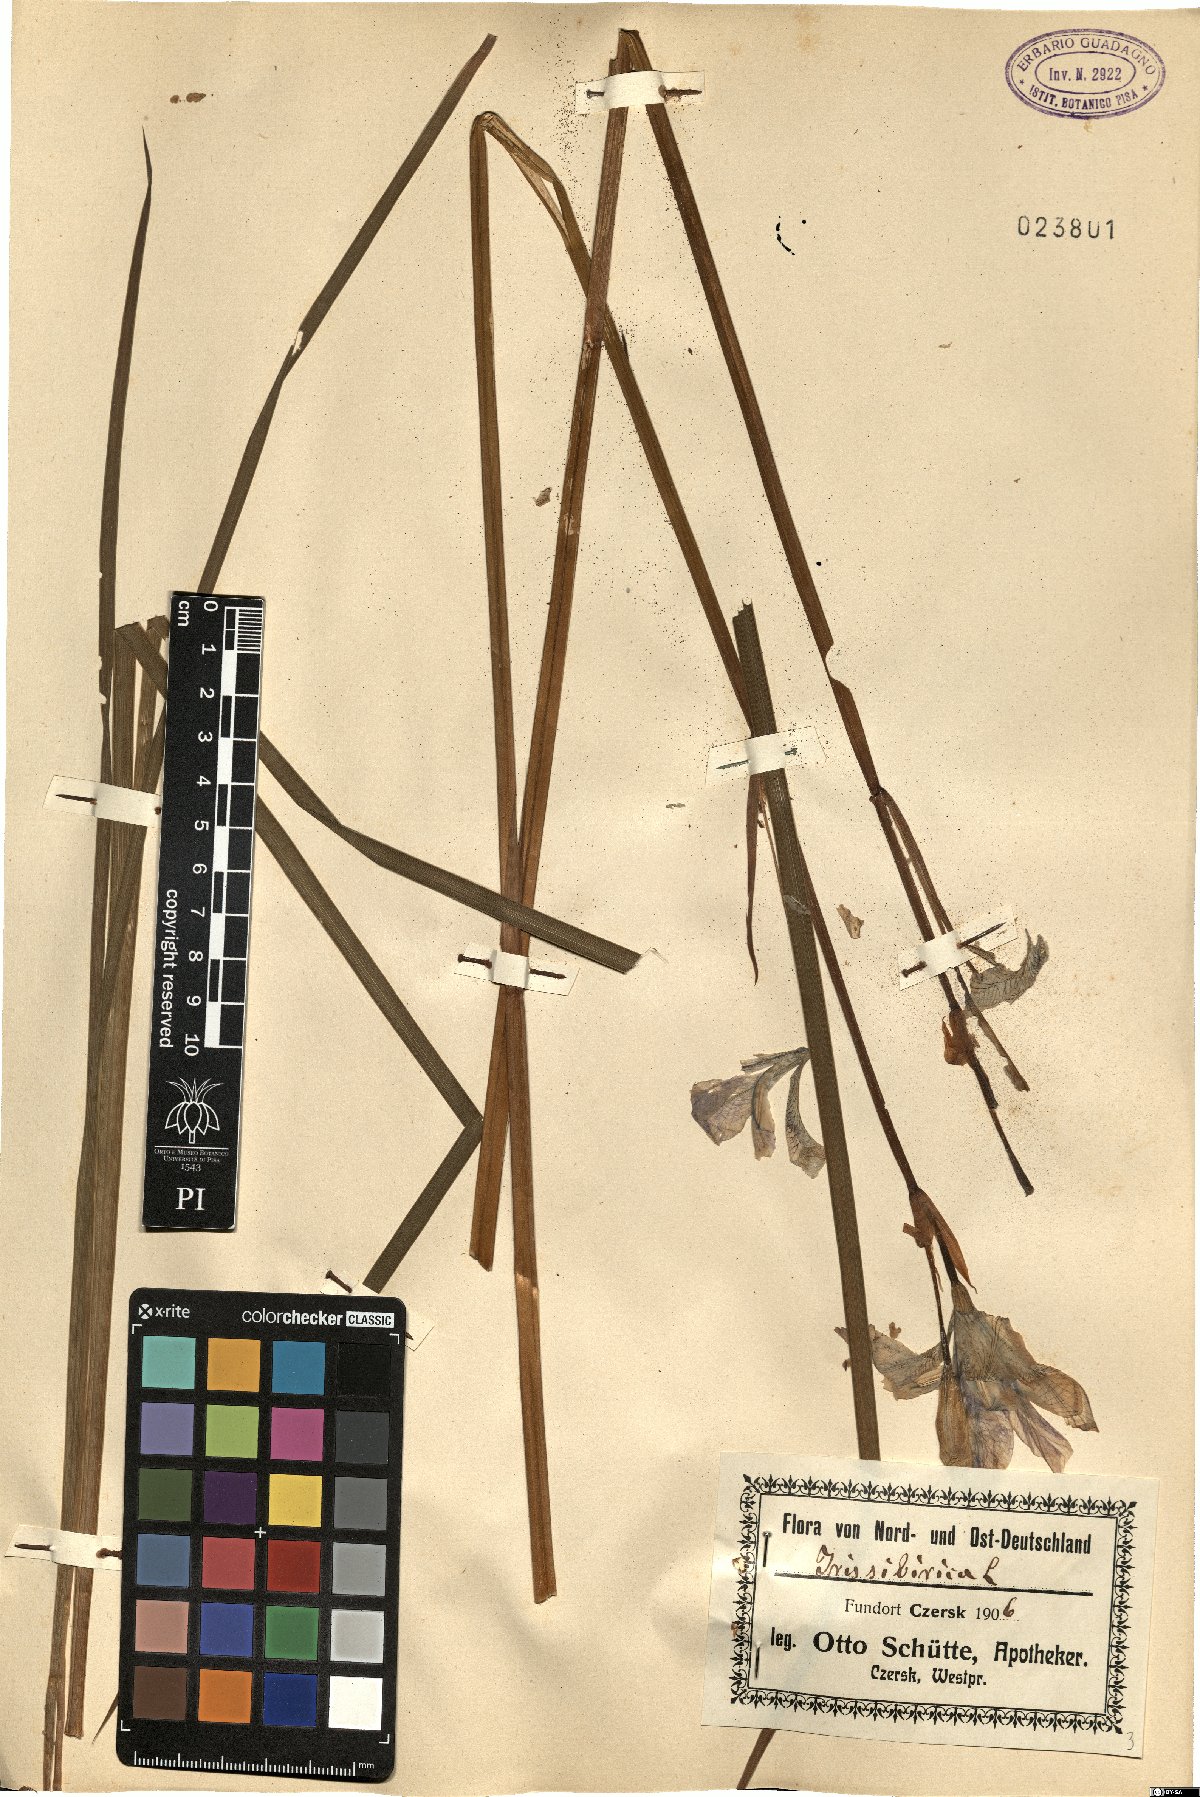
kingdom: Plantae
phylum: Tracheophyta
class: Liliopsida
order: Asparagales
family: Iridaceae
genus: Iris
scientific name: Iris sibirica
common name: Siberian iris
